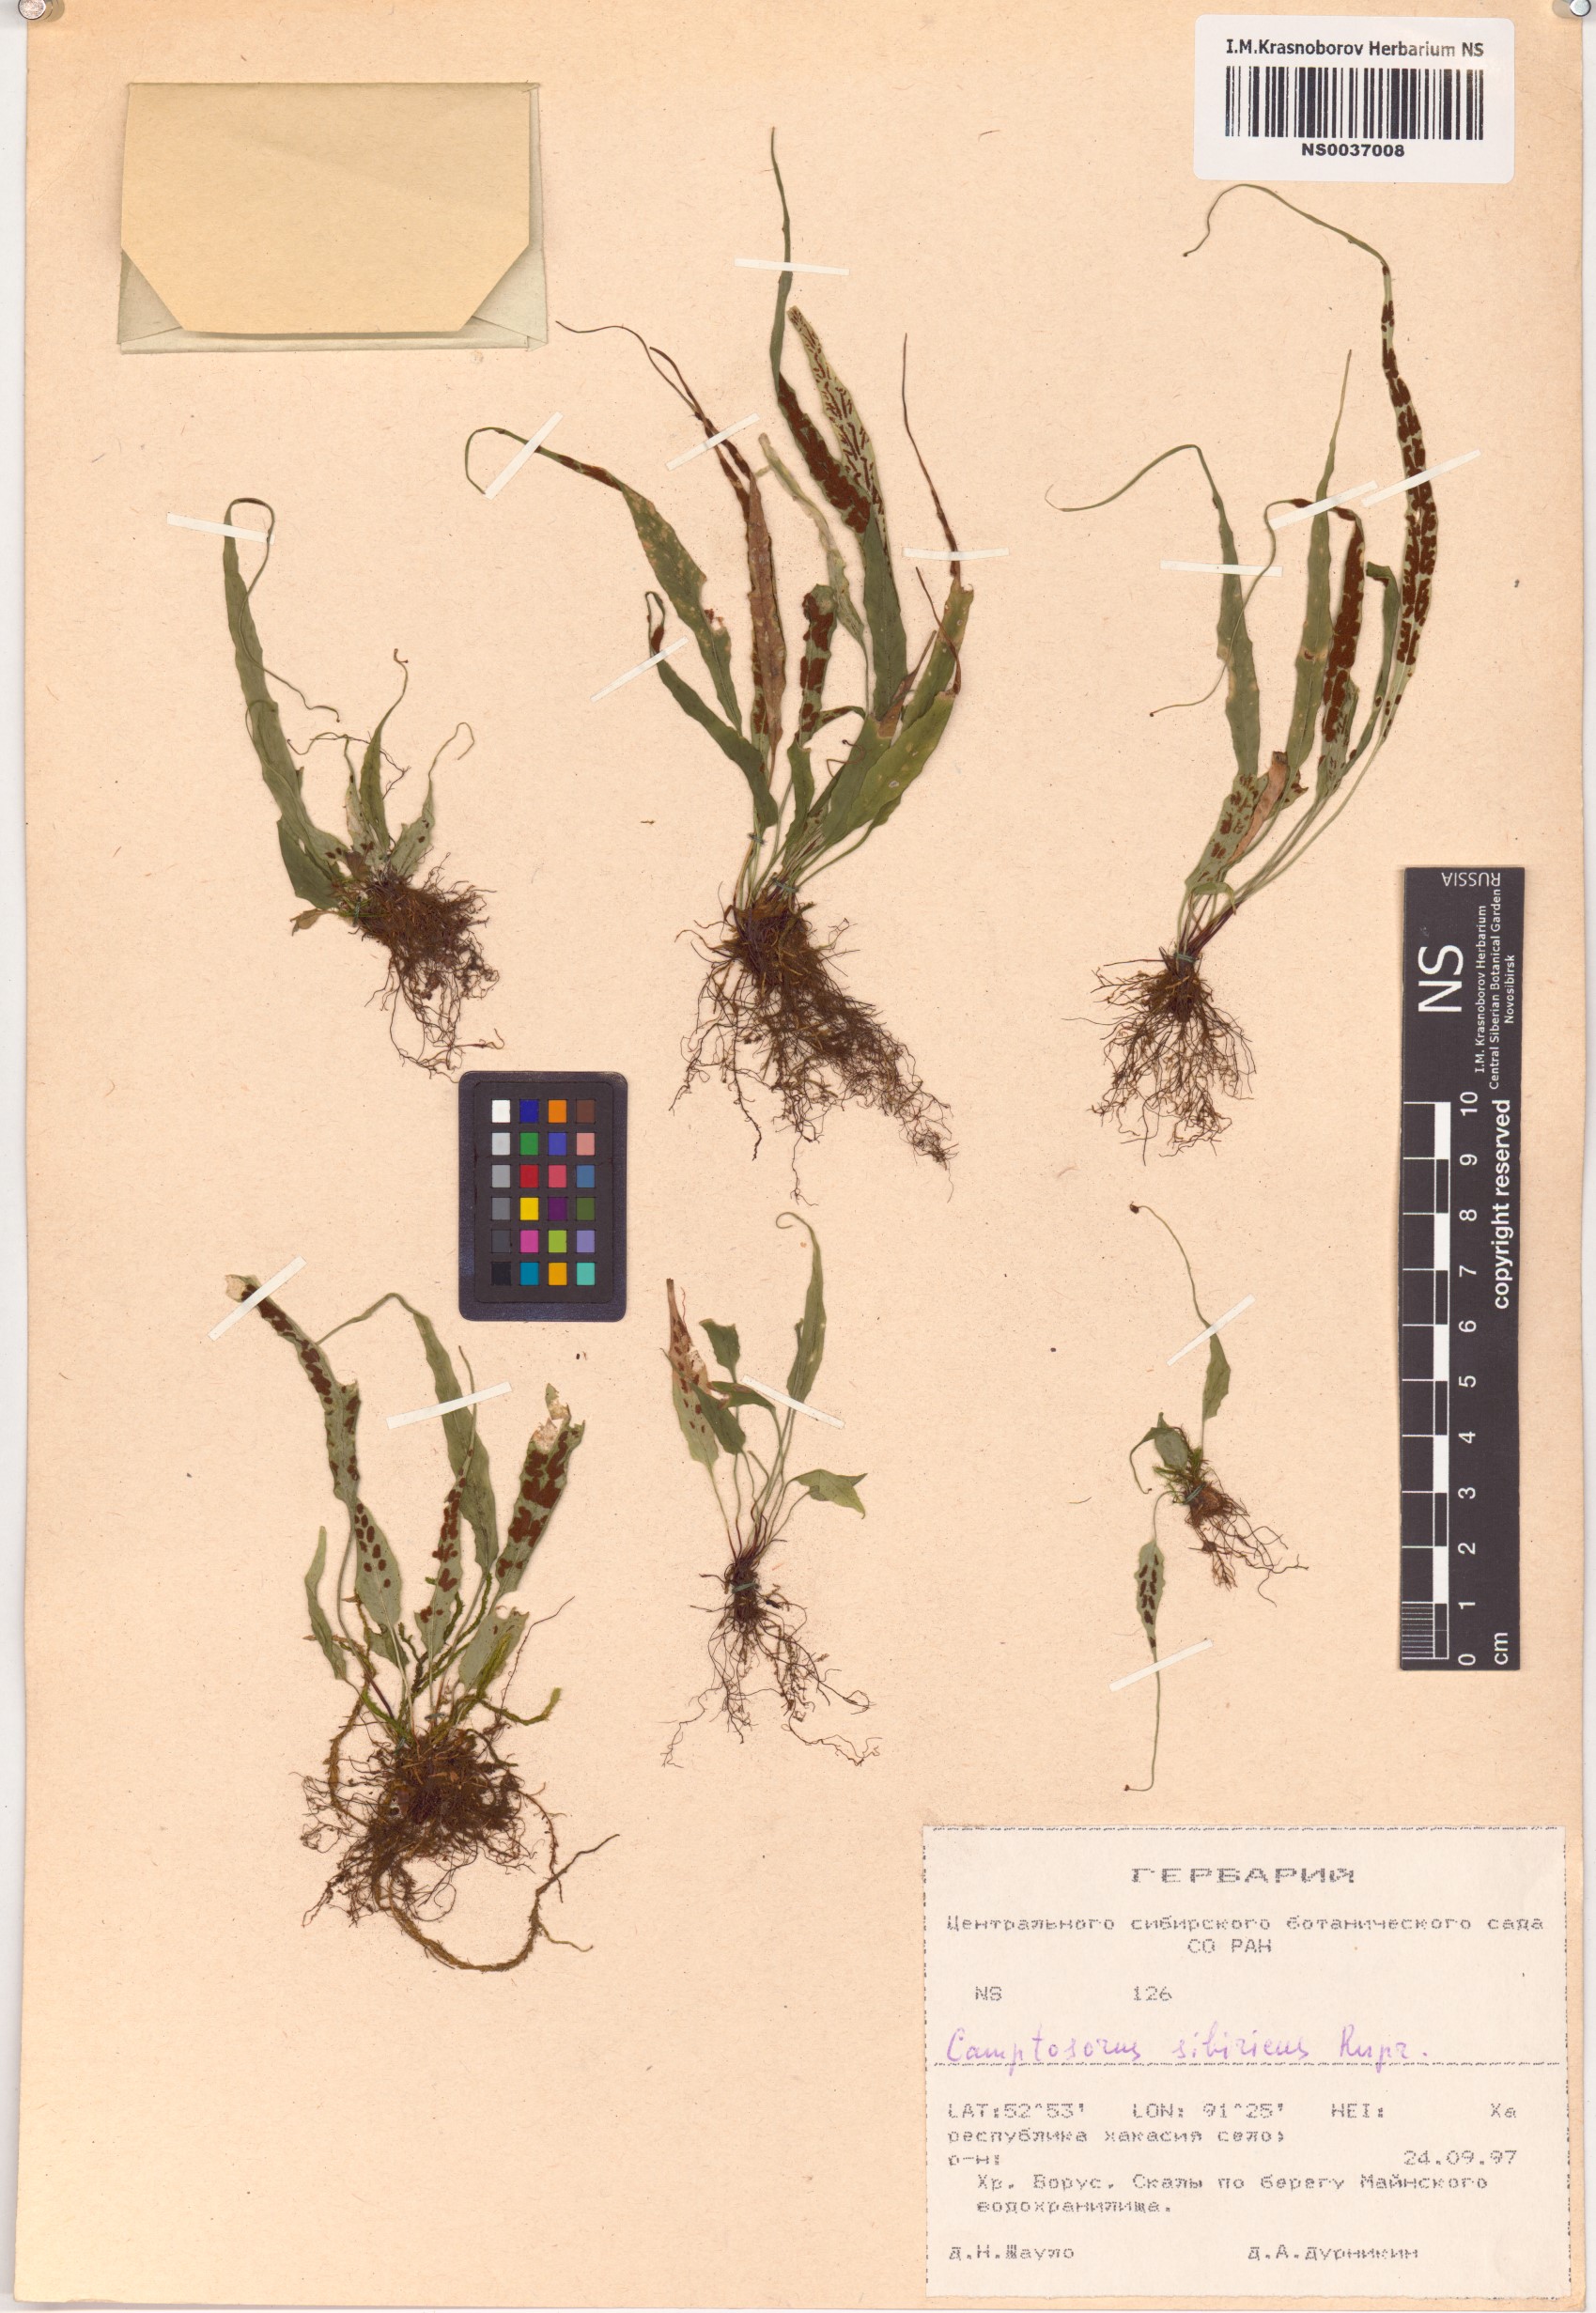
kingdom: Plantae
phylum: Tracheophyta
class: Polypodiopsida
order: Polypodiales
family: Aspleniaceae
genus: Asplenium
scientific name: Asplenium ruprechtii
